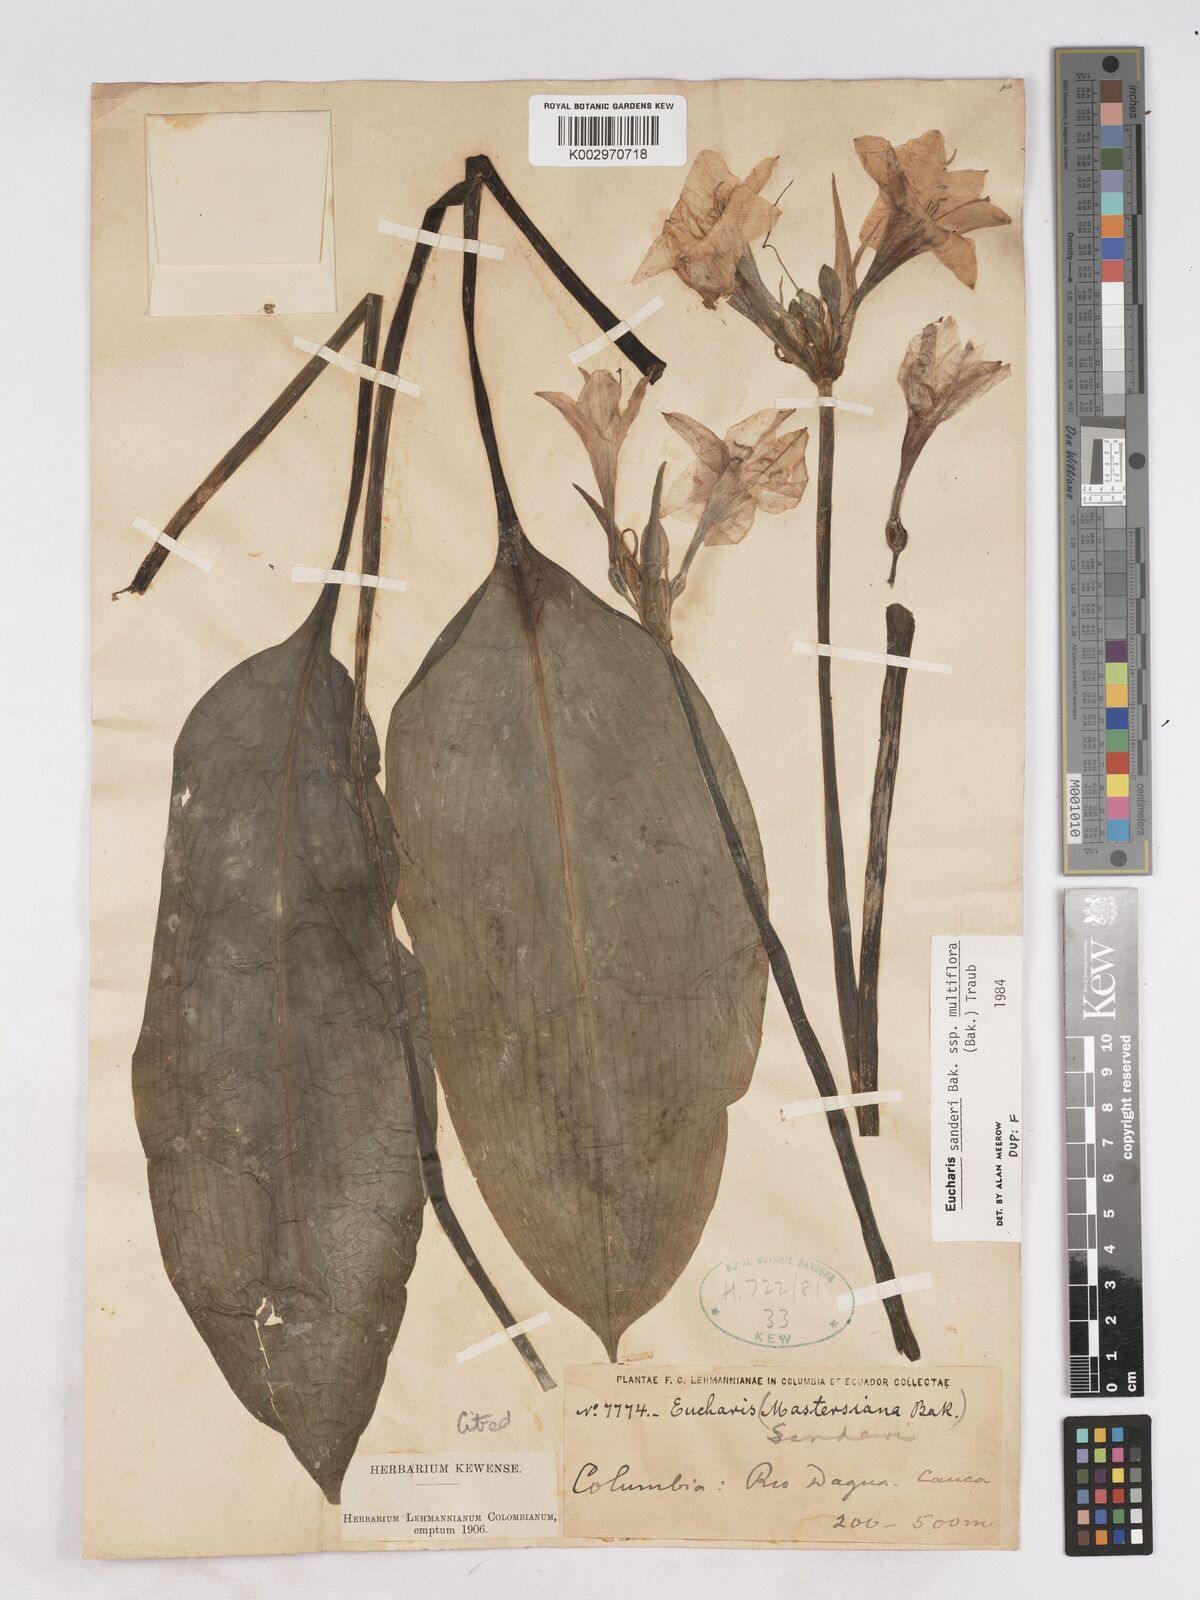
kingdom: Plantae
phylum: Tracheophyta
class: Liliopsida
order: Asparagales
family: Amaryllidaceae
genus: Urceolina
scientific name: Urceolina
